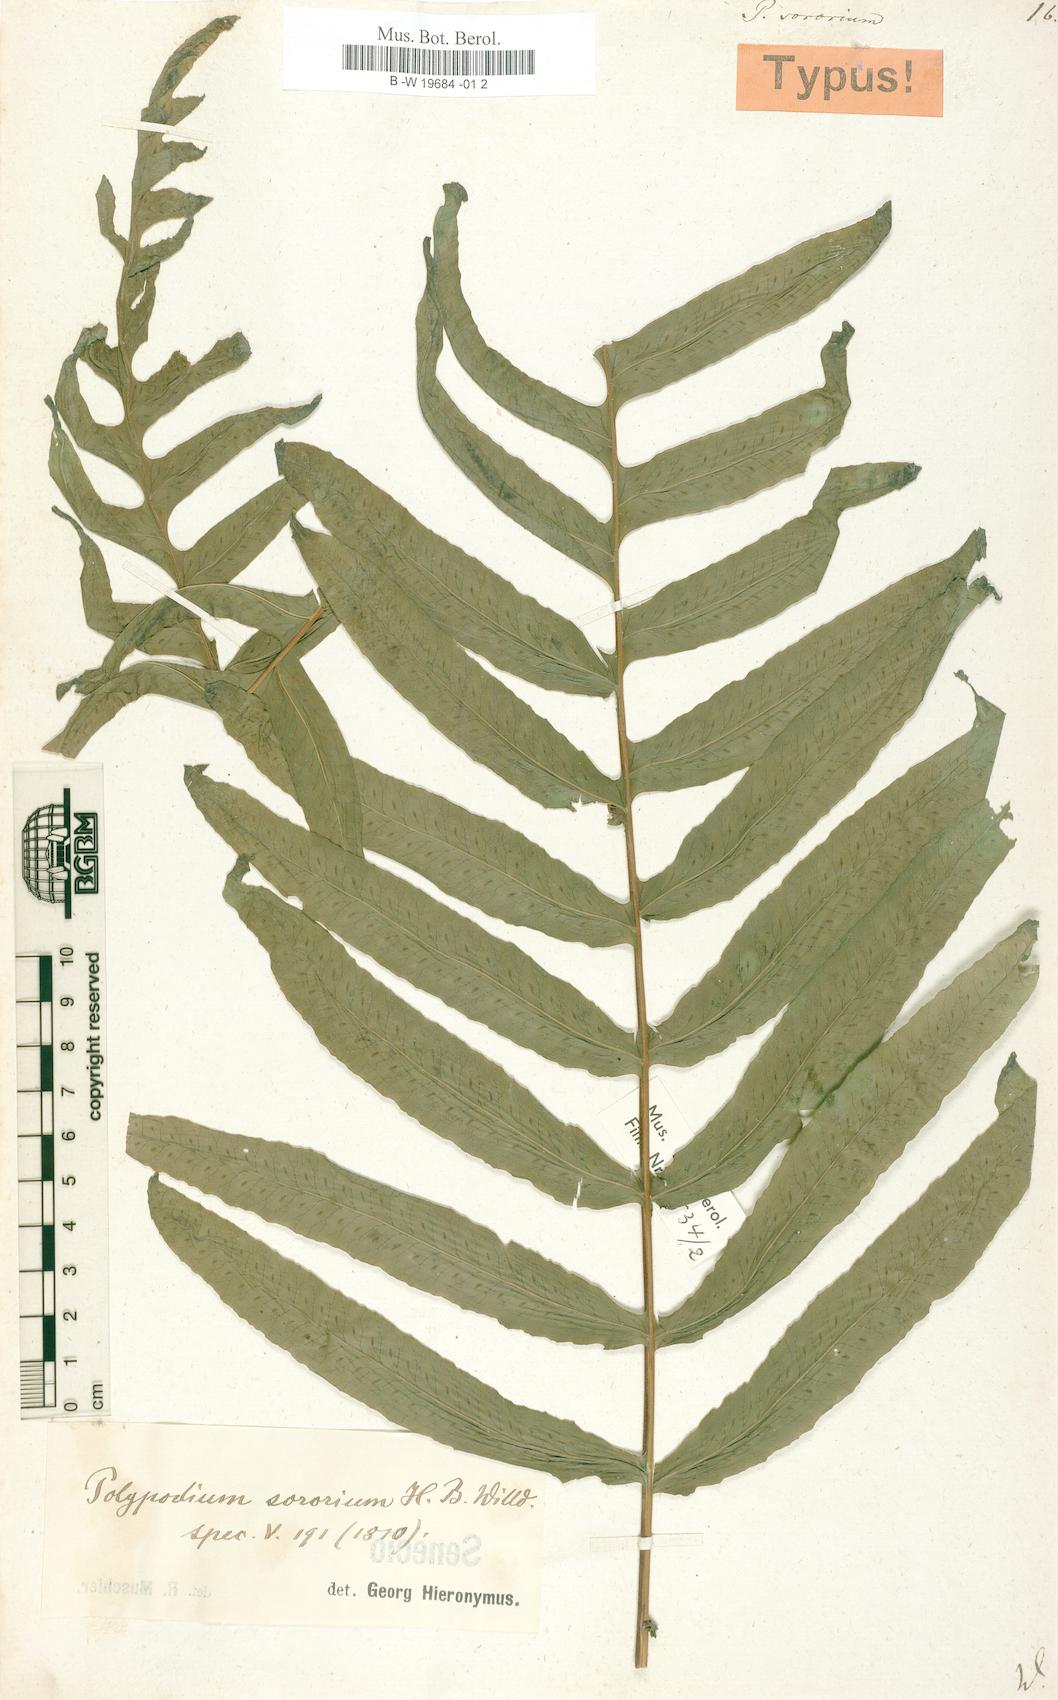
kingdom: Plantae
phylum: Tracheophyta
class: Polypodiopsida
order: Polypodiales
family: Polypodiaceae
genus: Pecluma
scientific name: Pecluma dulcis
